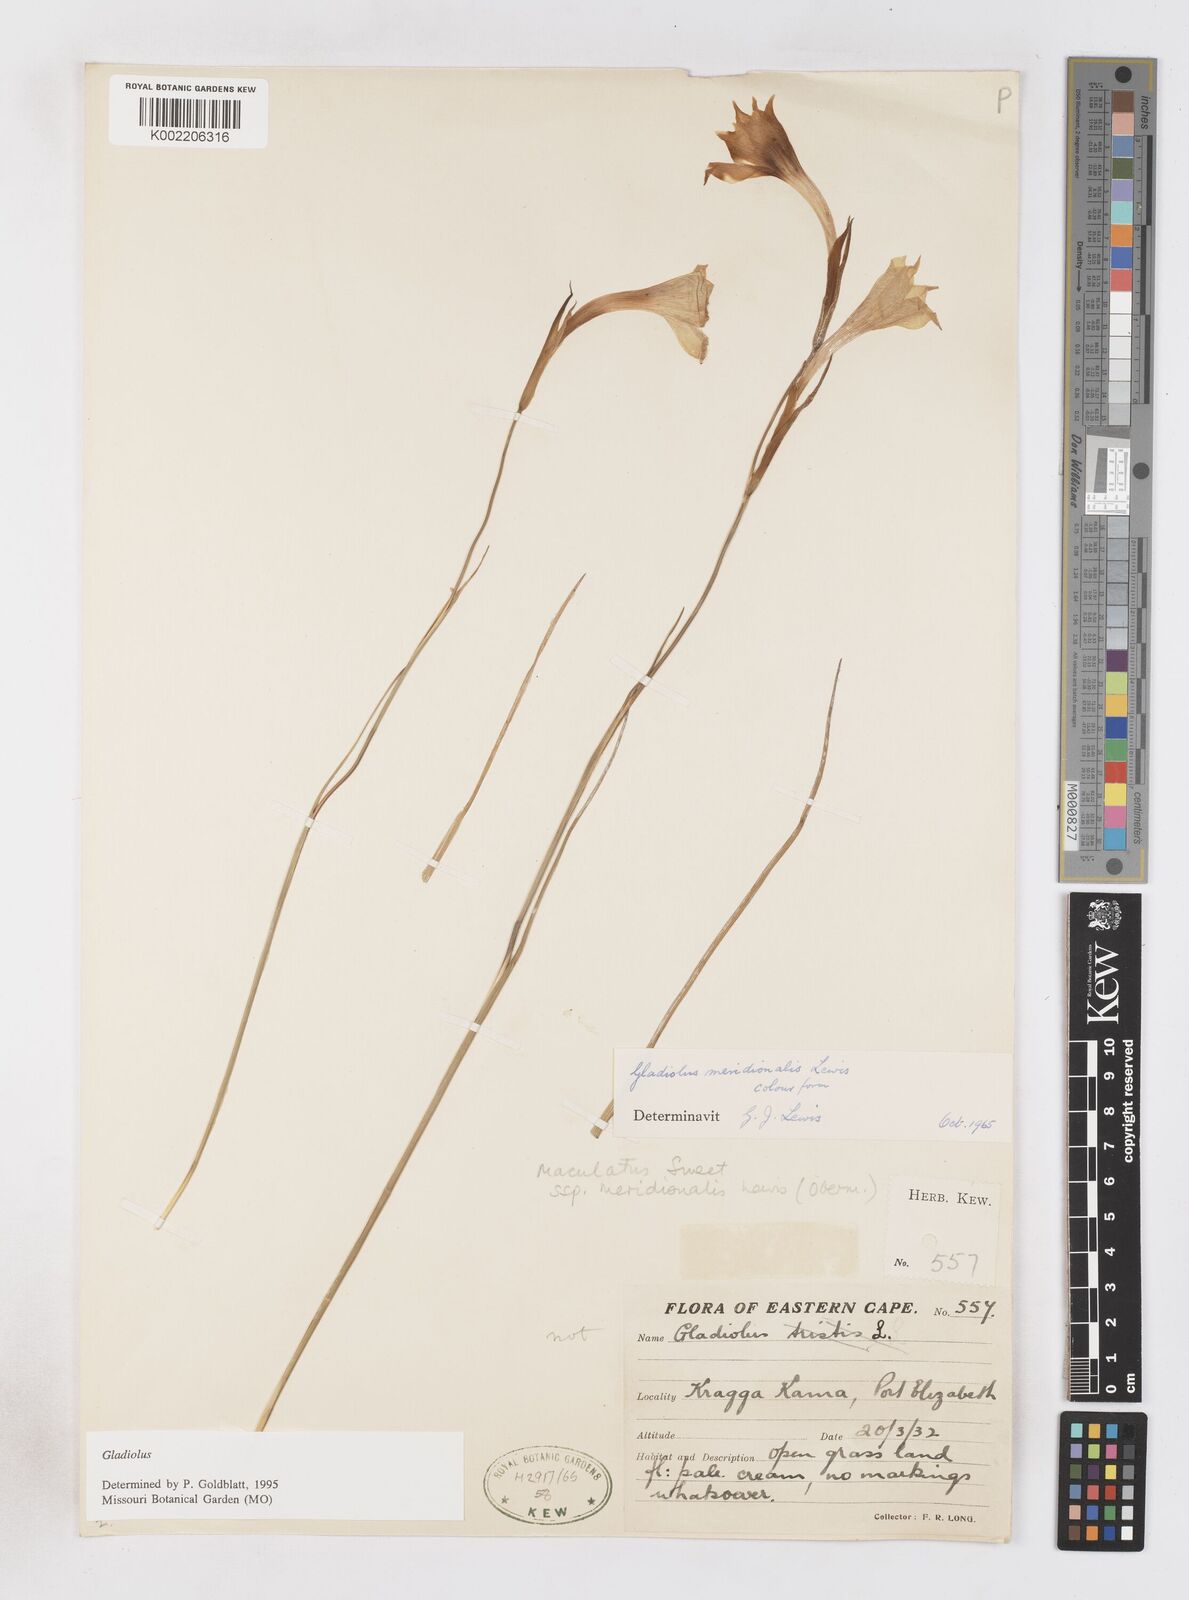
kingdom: Plantae
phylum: Tracheophyta
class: Liliopsida
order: Asparagales
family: Iridaceae
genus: Gladiolus
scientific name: Gladiolus meridionalis
